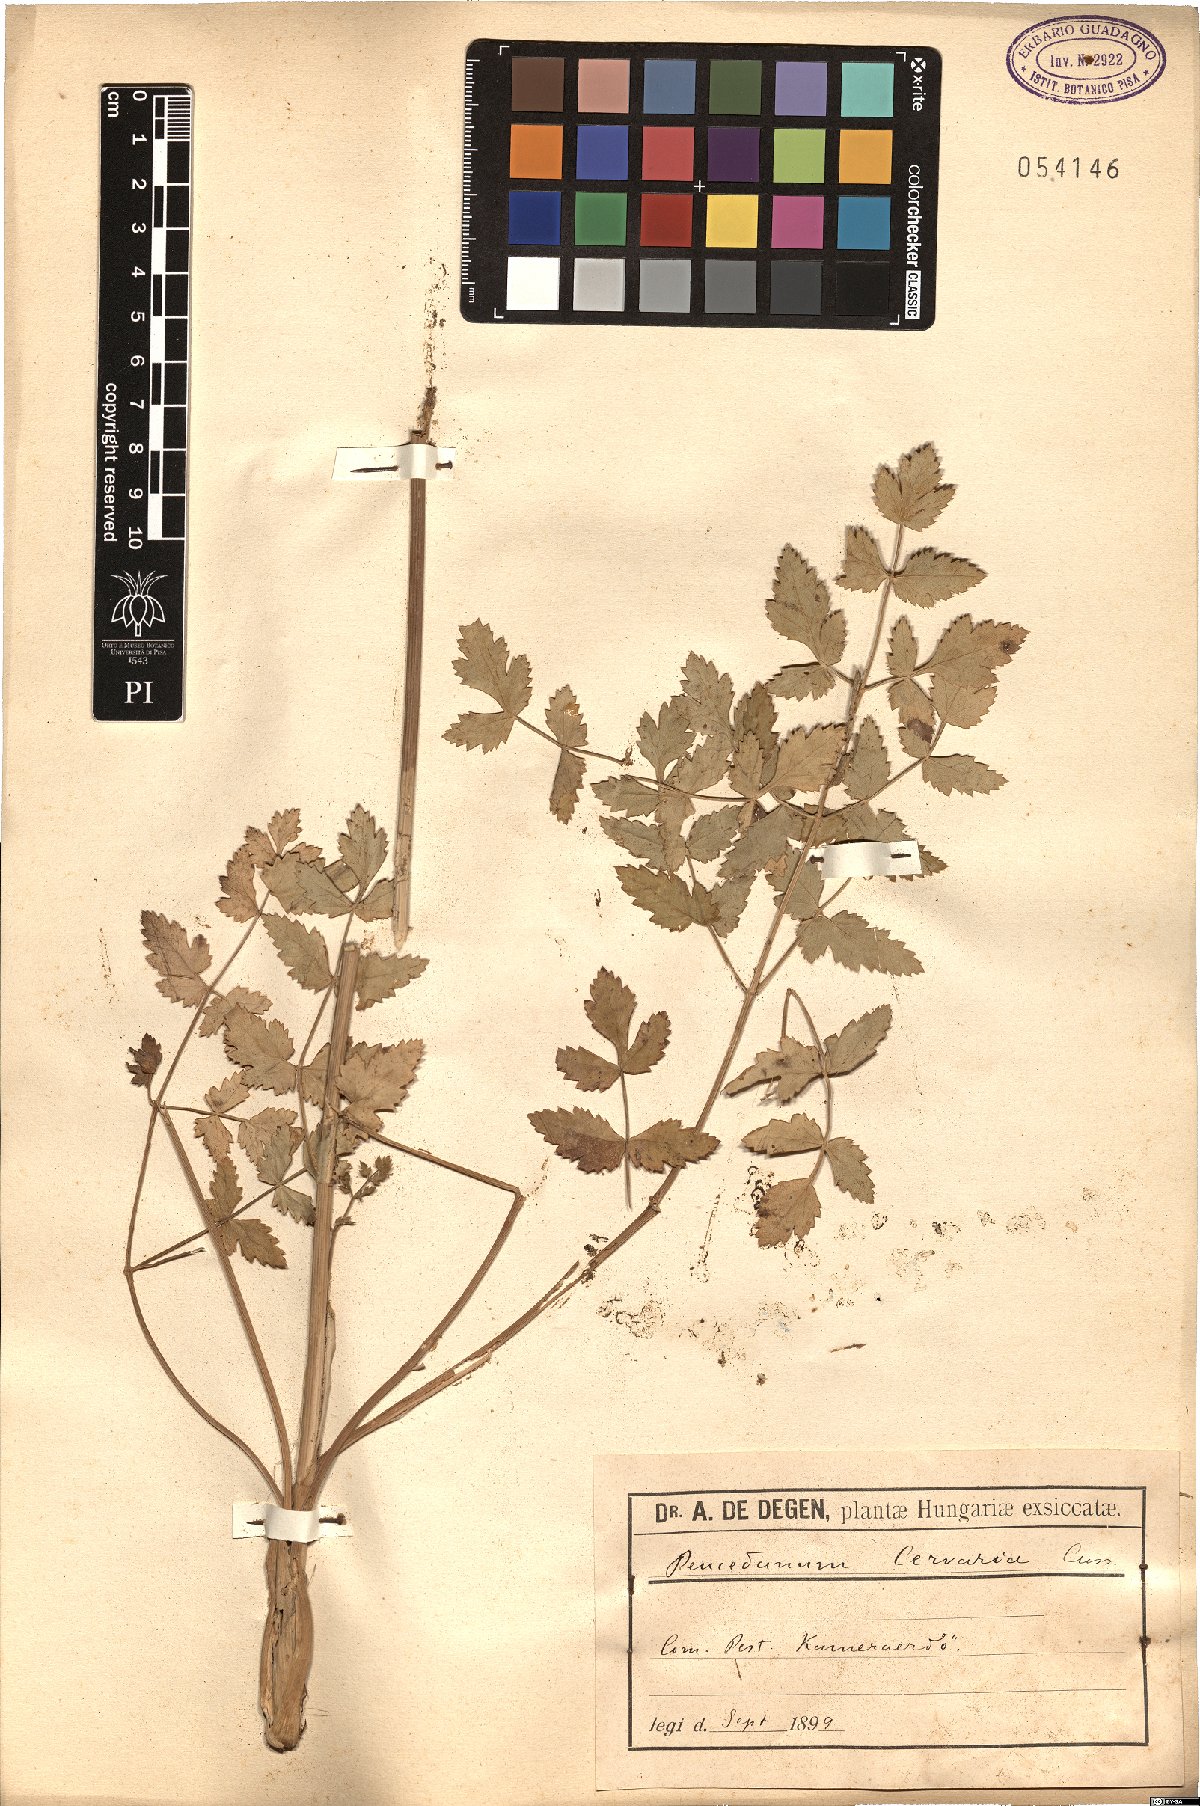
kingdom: Plantae
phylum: Tracheophyta
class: Magnoliopsida
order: Apiales
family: Apiaceae
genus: Cervaria
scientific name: Cervaria rivini
